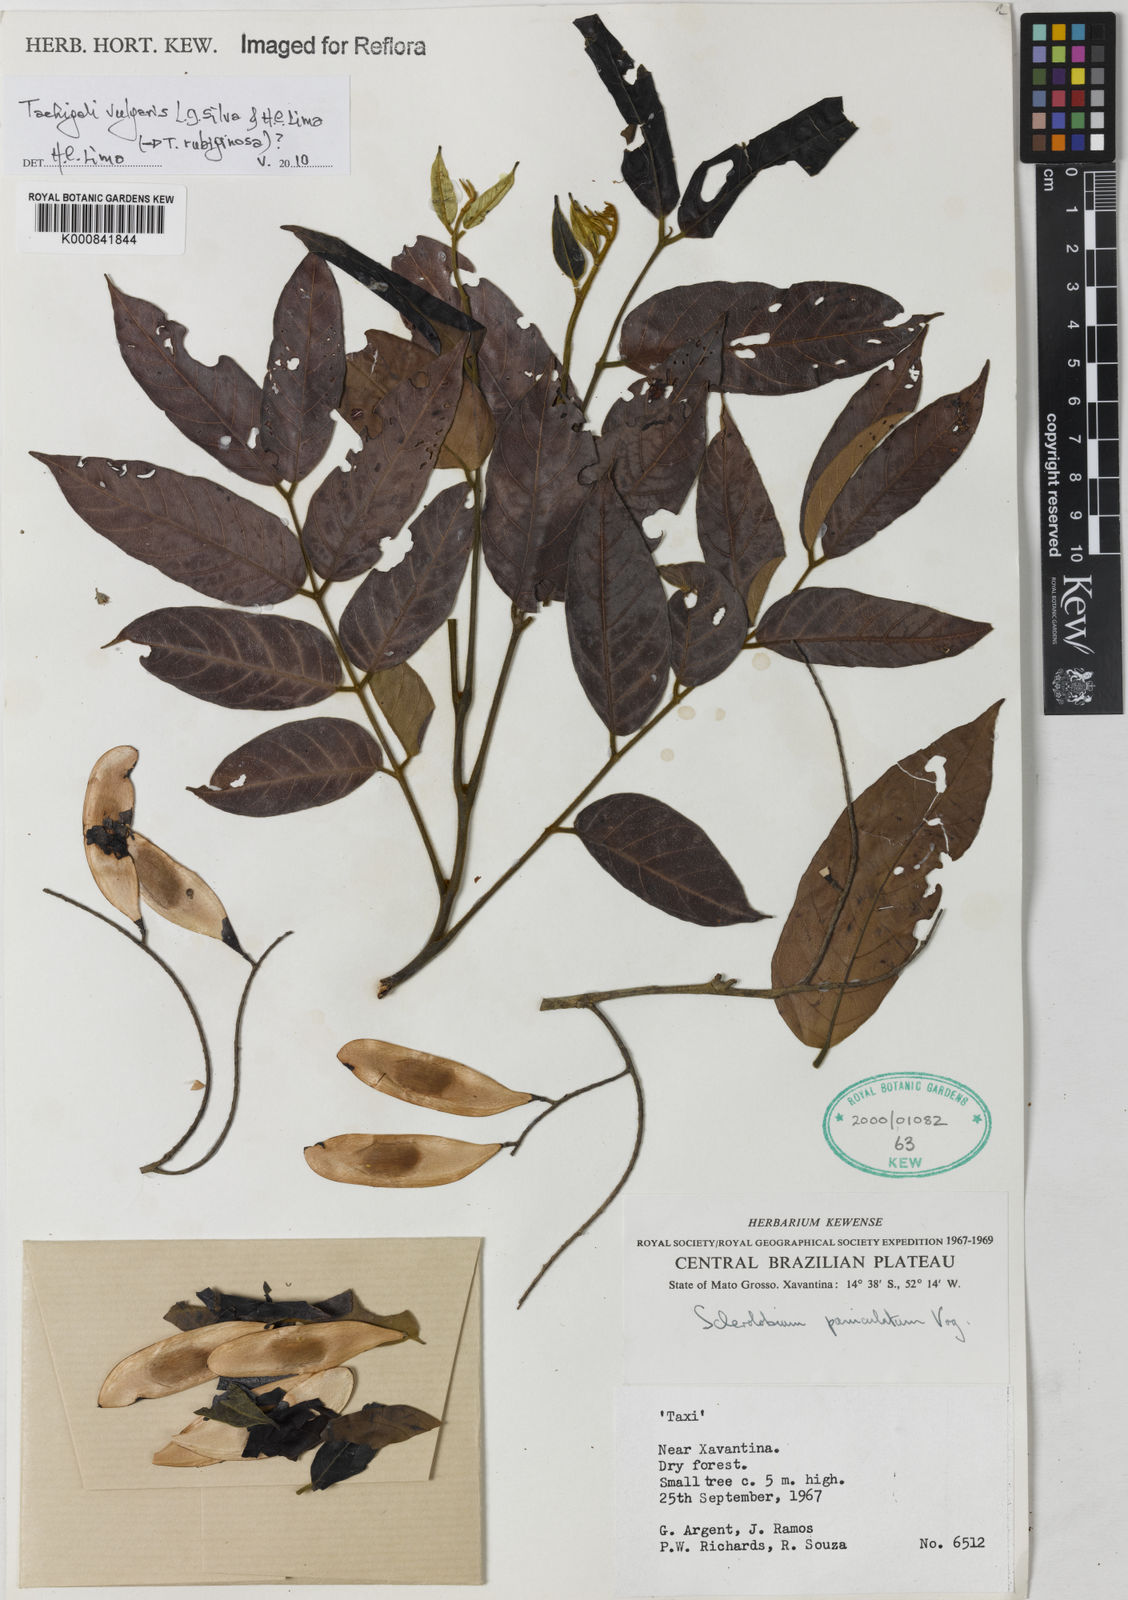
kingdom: Plantae
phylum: Tracheophyta
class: Magnoliopsida
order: Fabales
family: Fabaceae
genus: Tachigali
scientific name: Tachigali vulgaris
